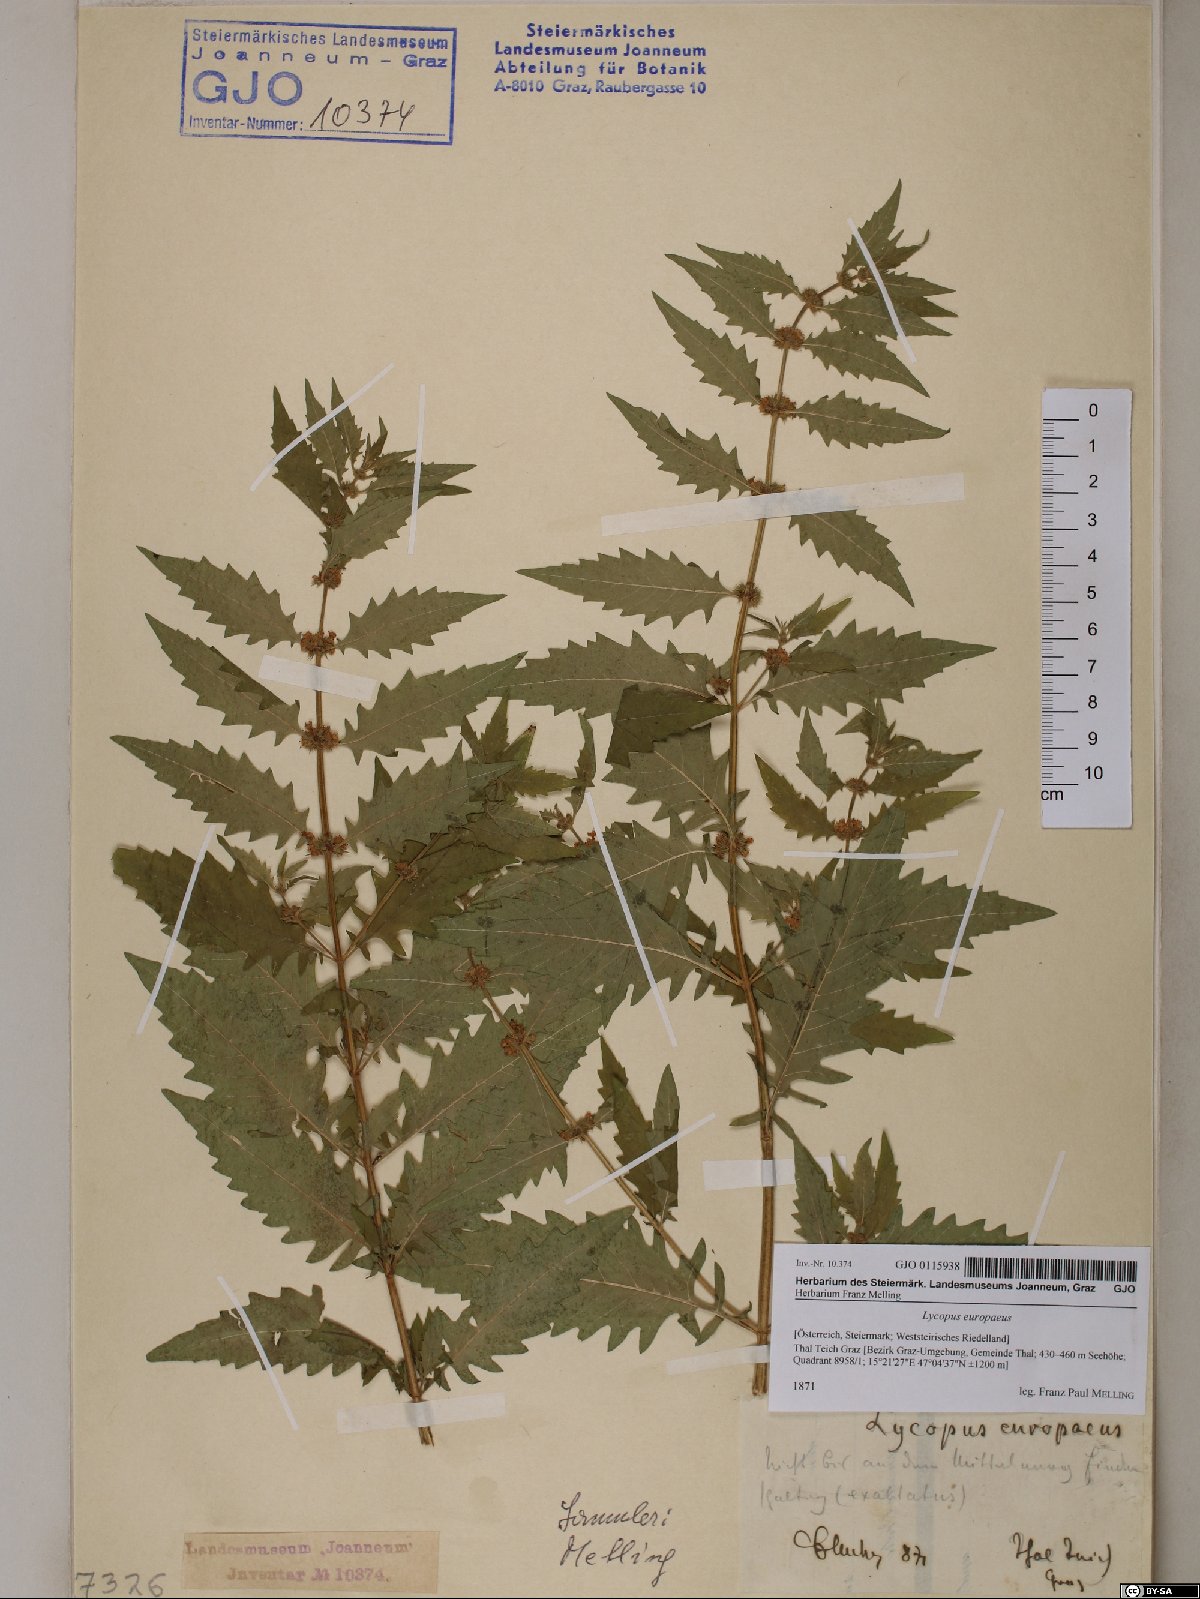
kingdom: Plantae
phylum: Tracheophyta
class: Magnoliopsida
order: Lamiales
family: Lamiaceae
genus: Lycopus
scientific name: Lycopus europaeus
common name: European bugleweed
